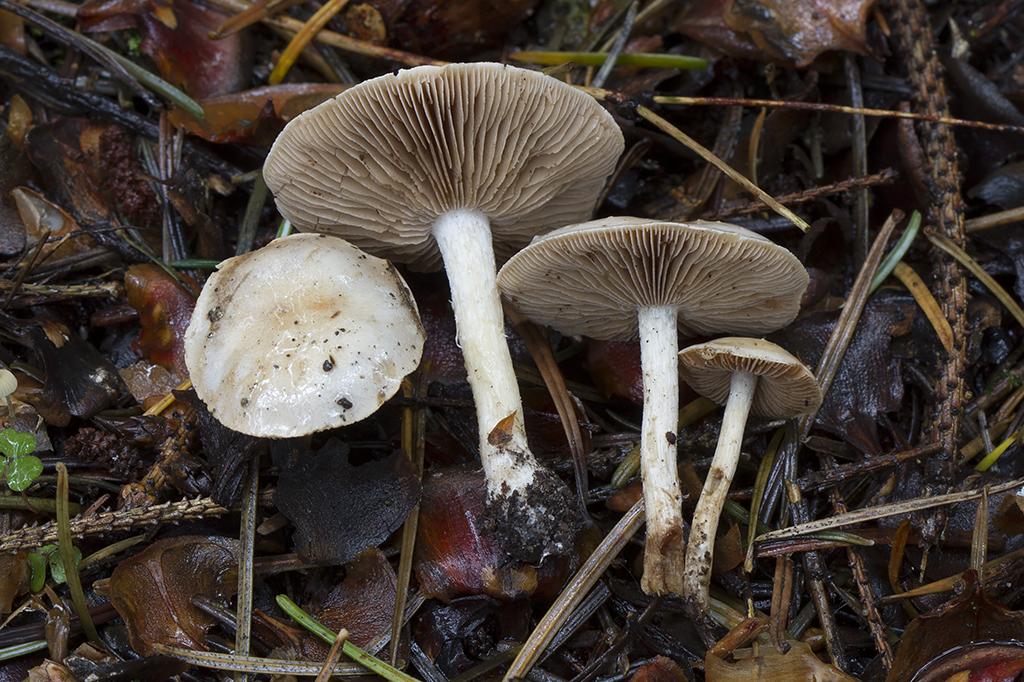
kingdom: Fungi
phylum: Basidiomycota
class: Agaricomycetes
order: Agaricales
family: Hymenogastraceae
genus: Hebeloma
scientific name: Hebeloma pseudofragilipes
